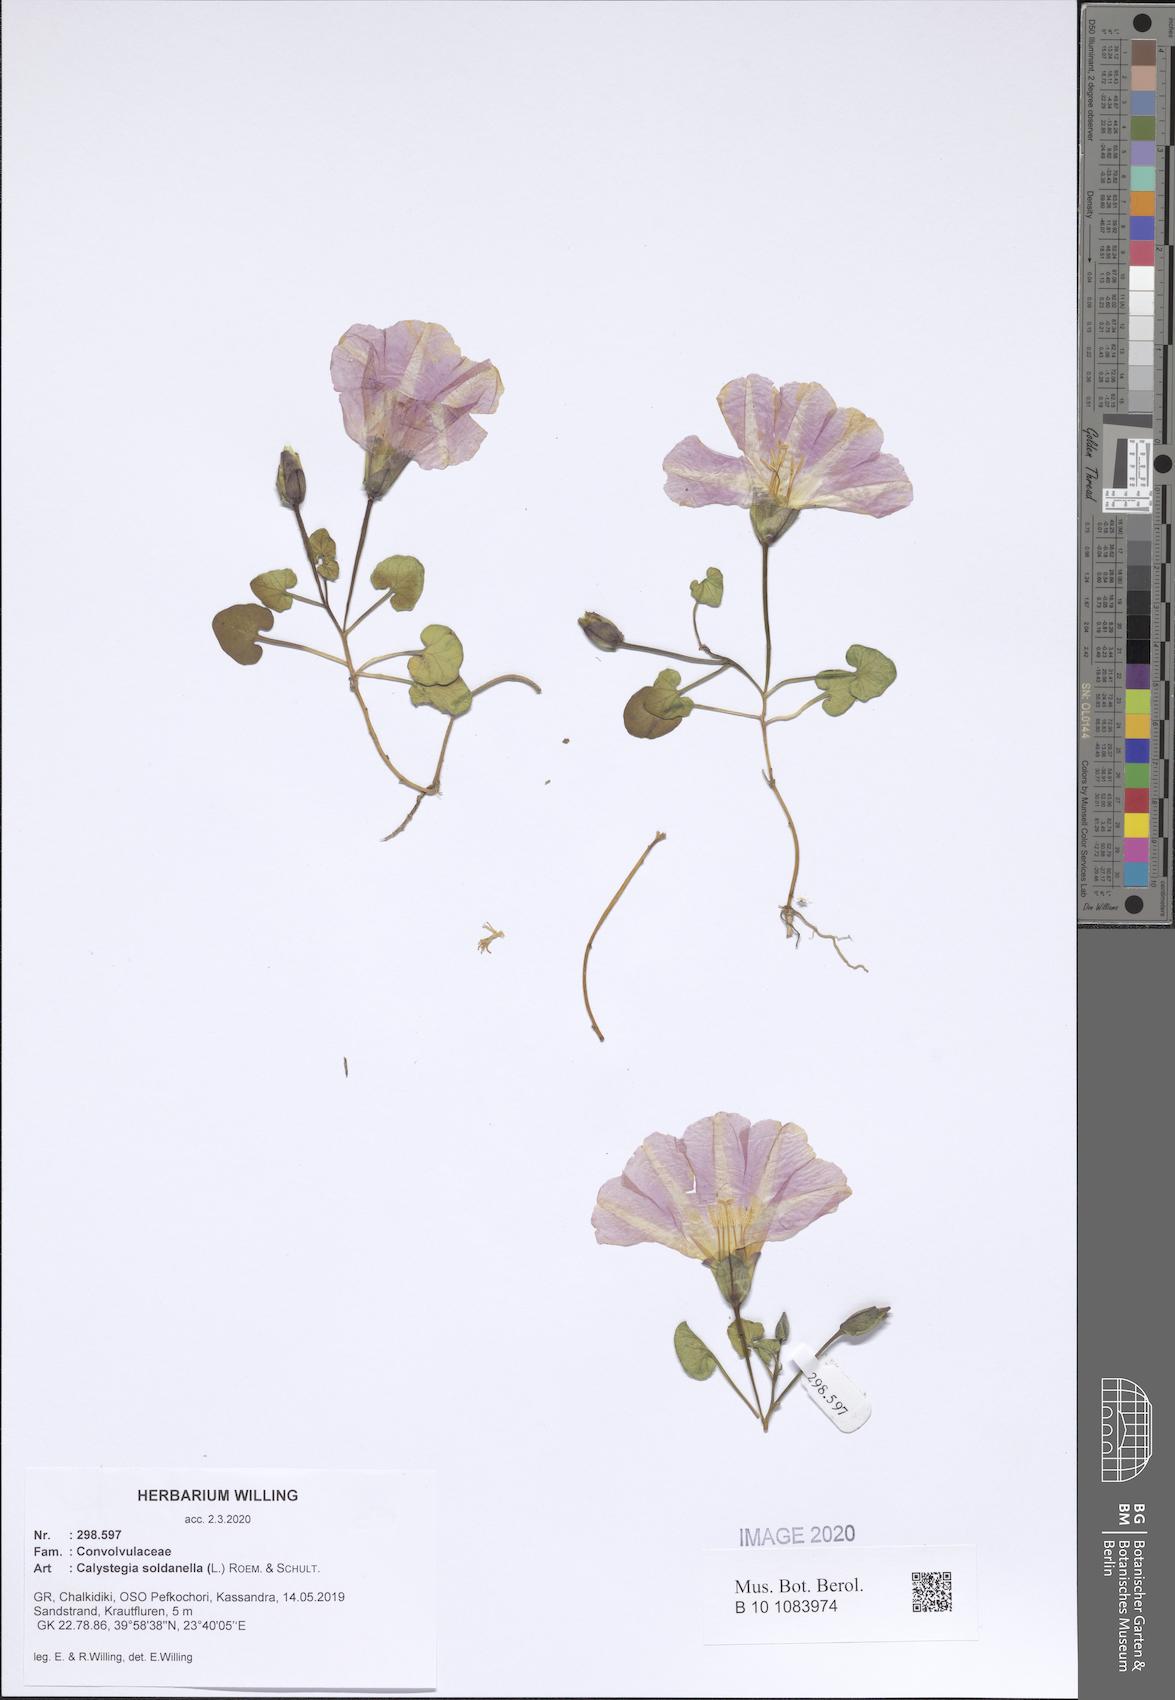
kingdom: Plantae
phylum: Tracheophyta
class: Magnoliopsida
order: Solanales
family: Convolvulaceae
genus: Calystegia
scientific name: Calystegia soldanella
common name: Sea bindweed
